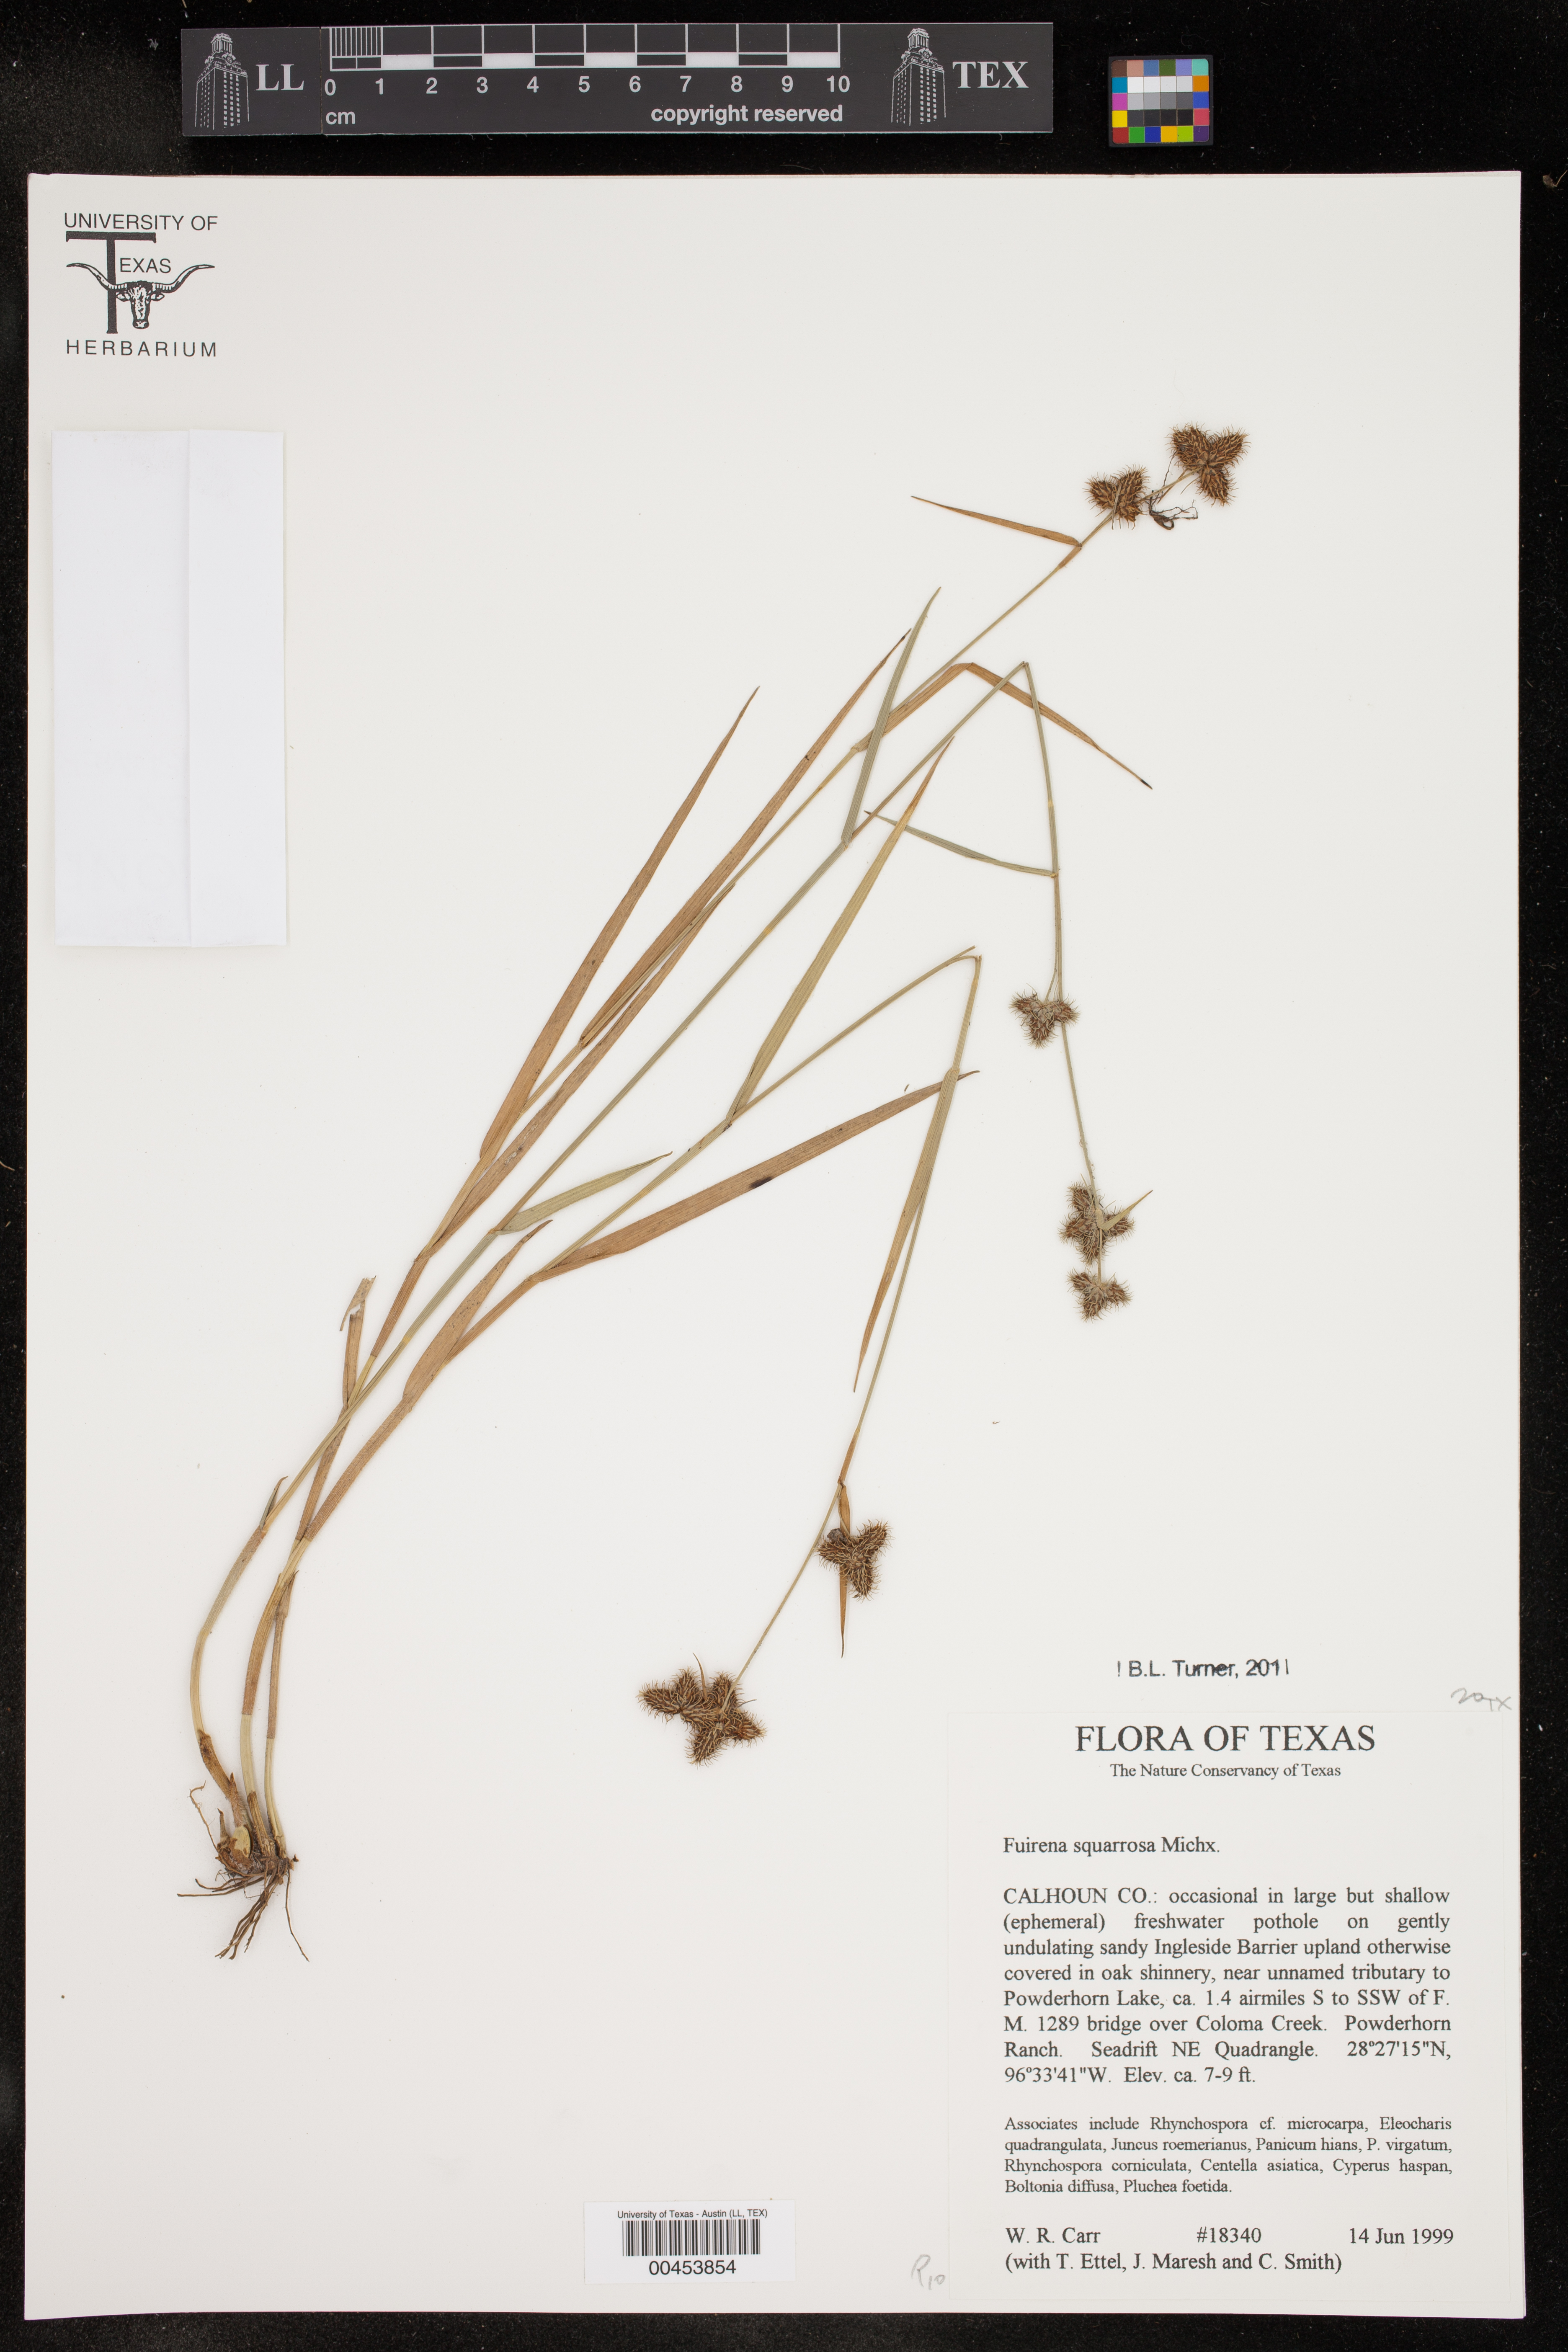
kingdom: Plantae
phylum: Tracheophyta
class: Liliopsida
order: Poales
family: Cyperaceae
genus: Fuirena
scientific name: Fuirena squarrosa
